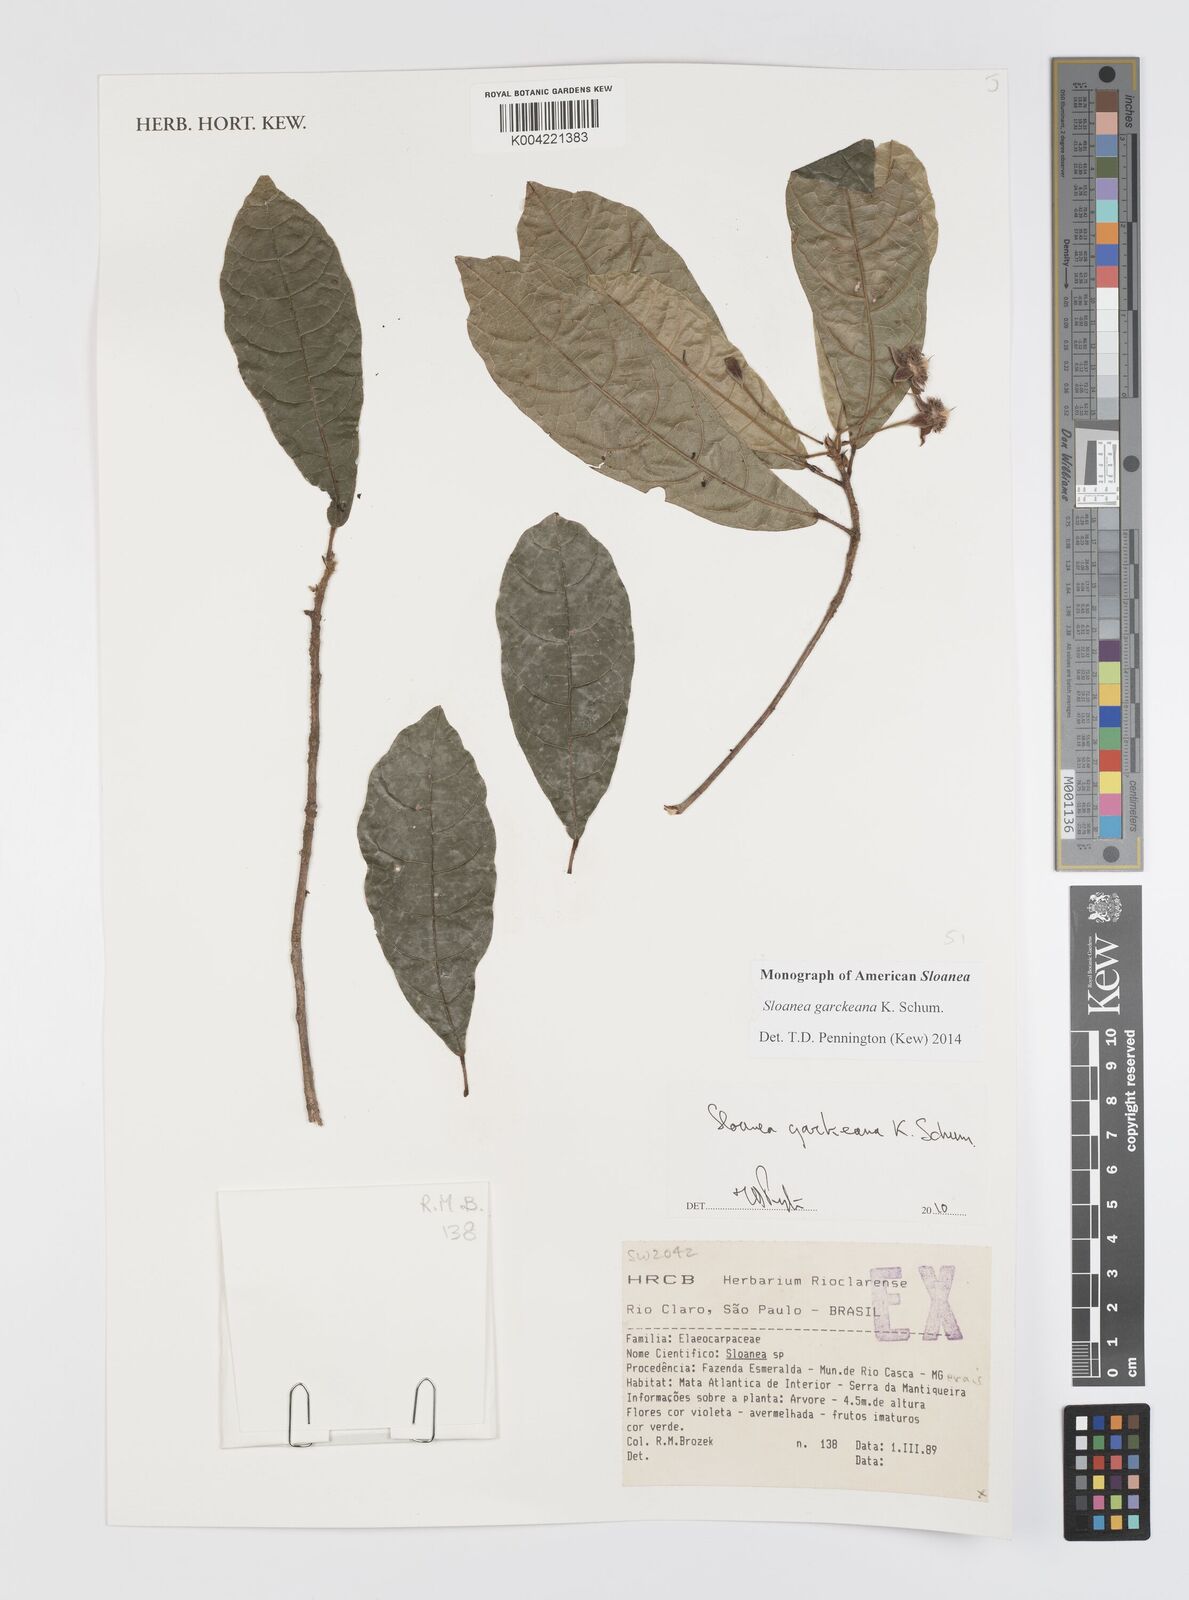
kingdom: Plantae
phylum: Tracheophyta
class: Magnoliopsida
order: Oxalidales
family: Elaeocarpaceae
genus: Sloanea
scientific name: Sloanea garckeana
